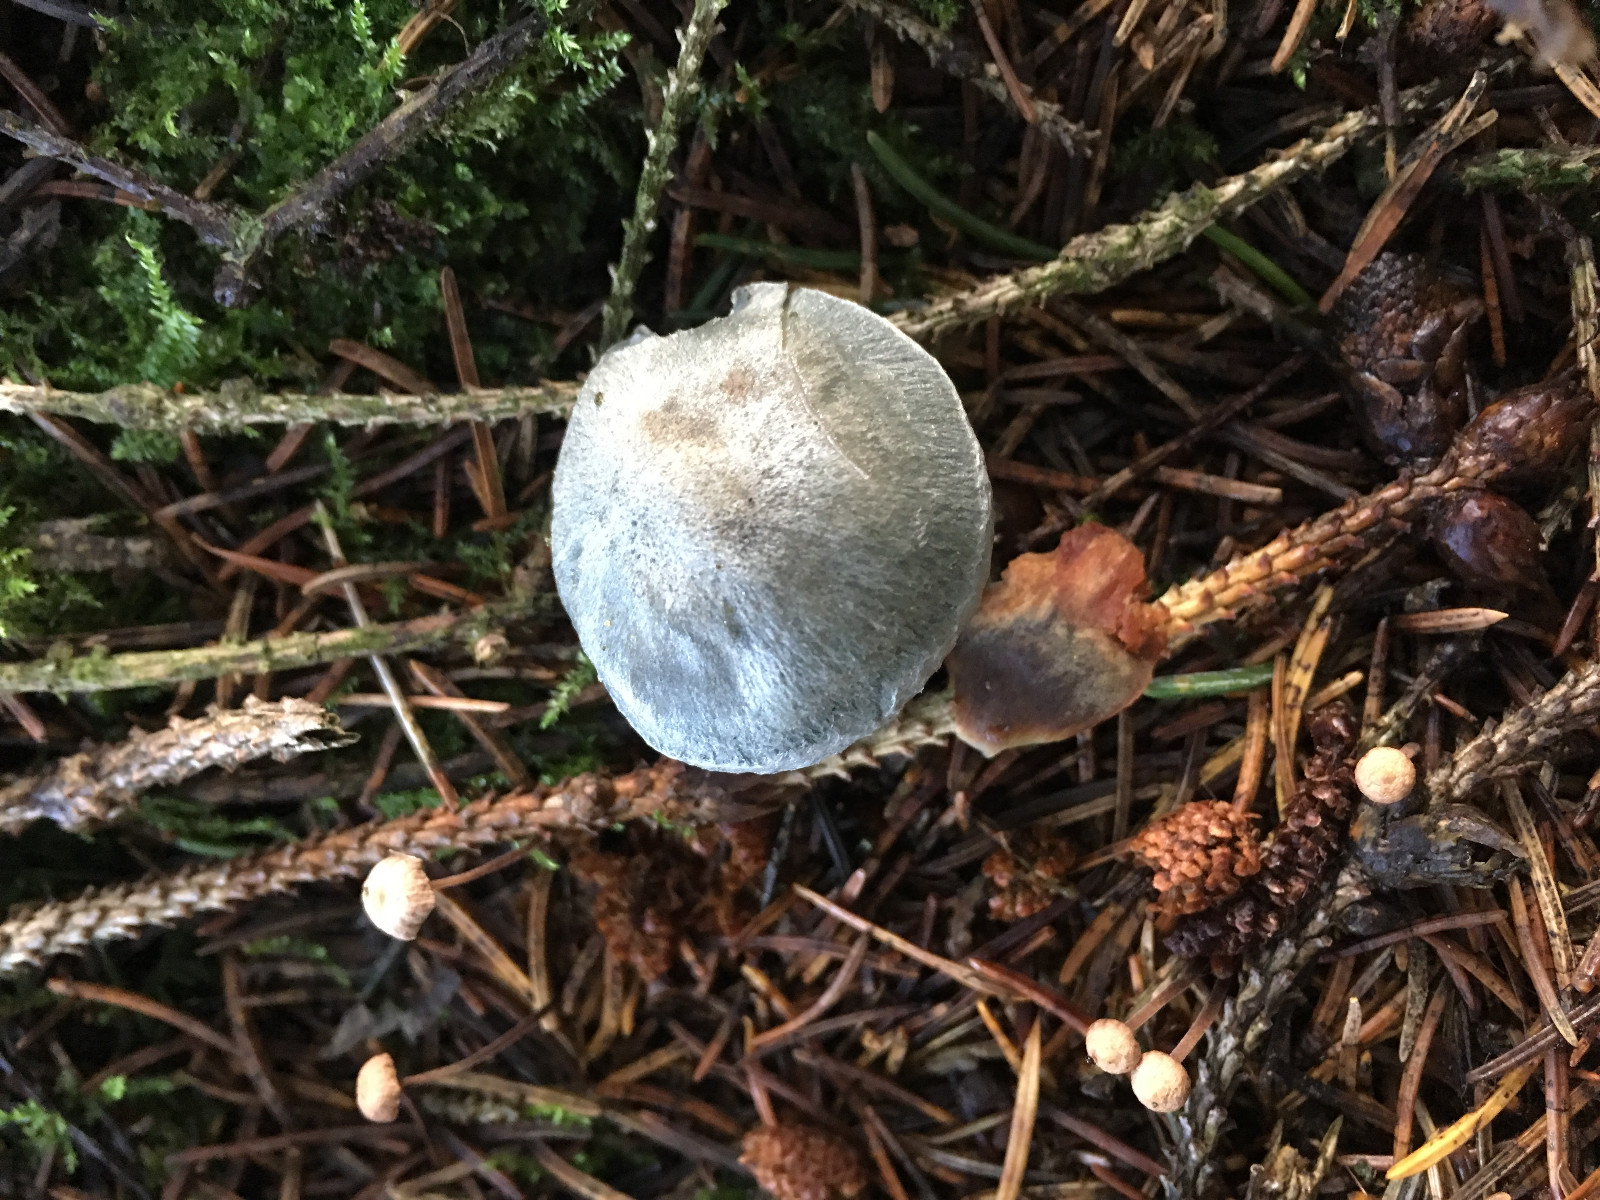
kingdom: Fungi
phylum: Basidiomycota
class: Agaricomycetes
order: Agaricales
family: Tricholomataceae
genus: Clitocybe
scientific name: Clitocybe odora
